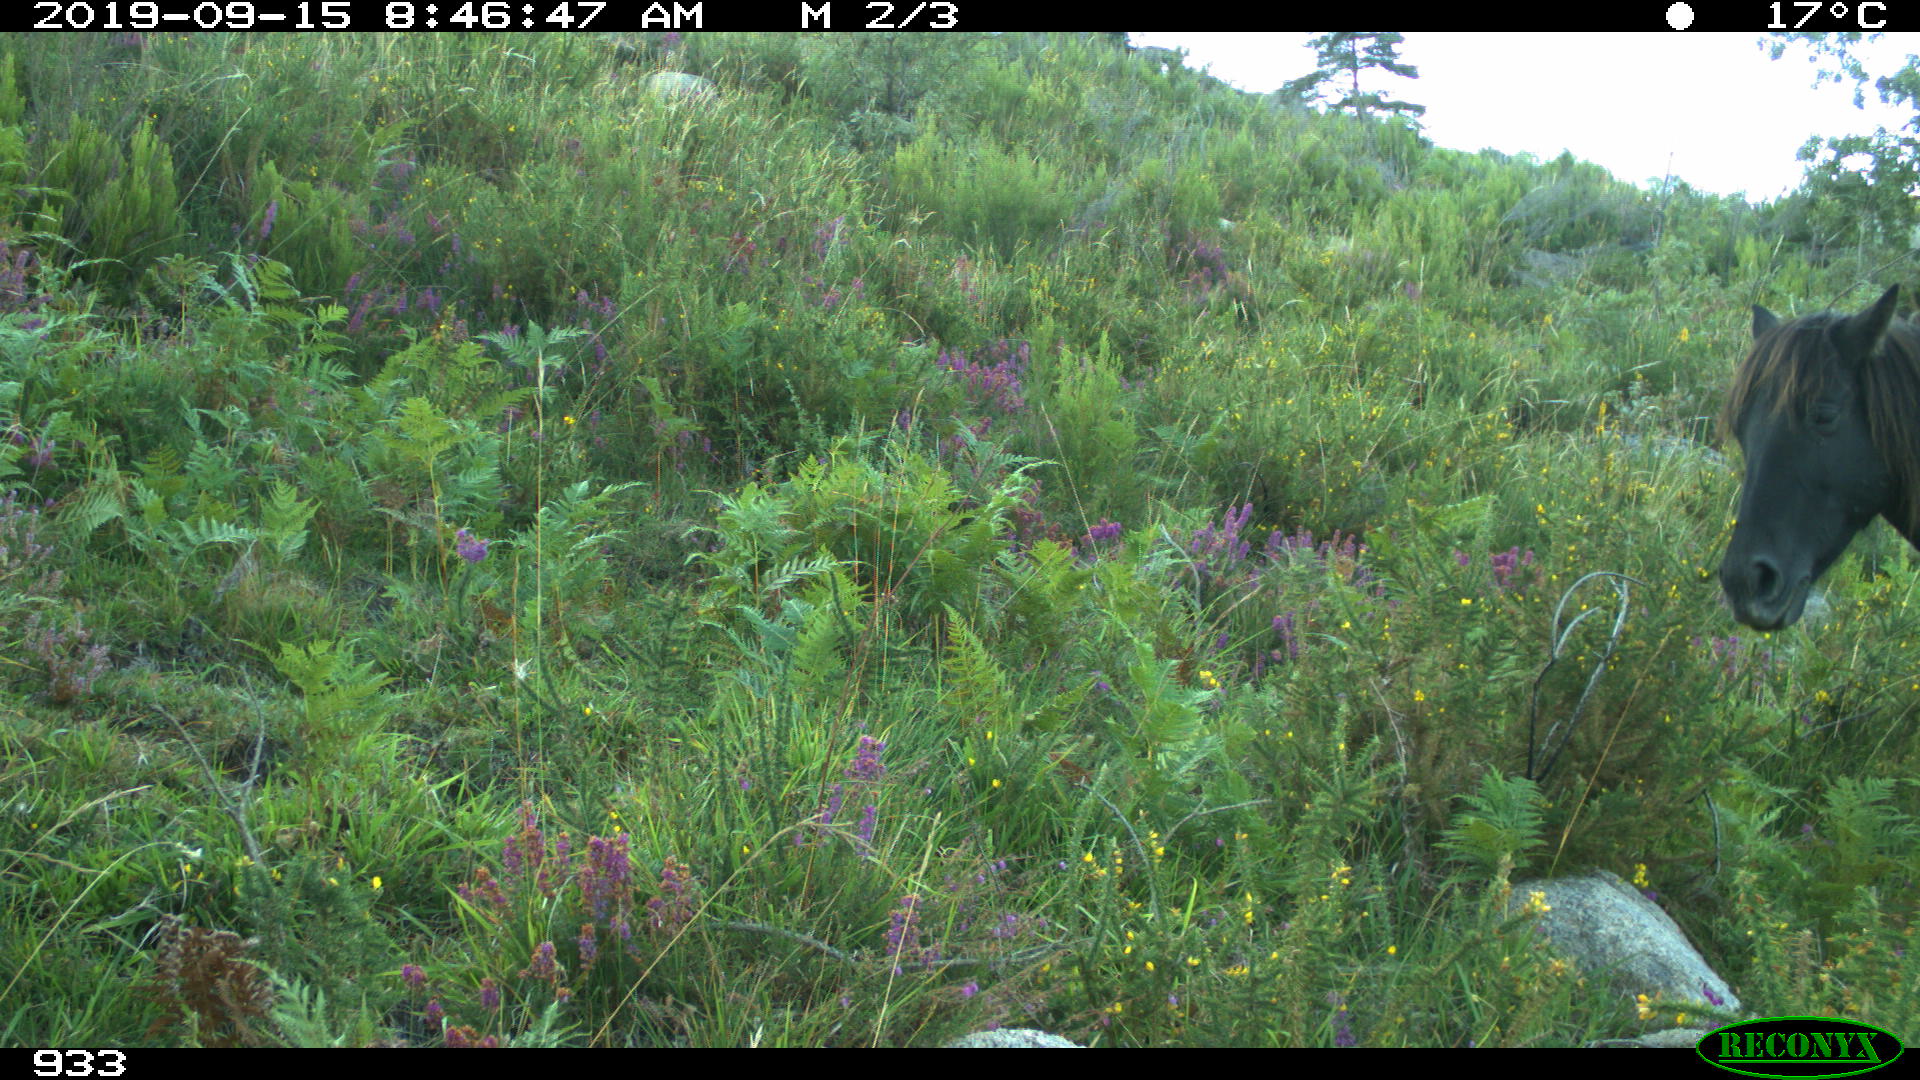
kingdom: Animalia
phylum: Chordata
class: Mammalia
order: Perissodactyla
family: Equidae
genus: Equus
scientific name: Equus caballus
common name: Horse
